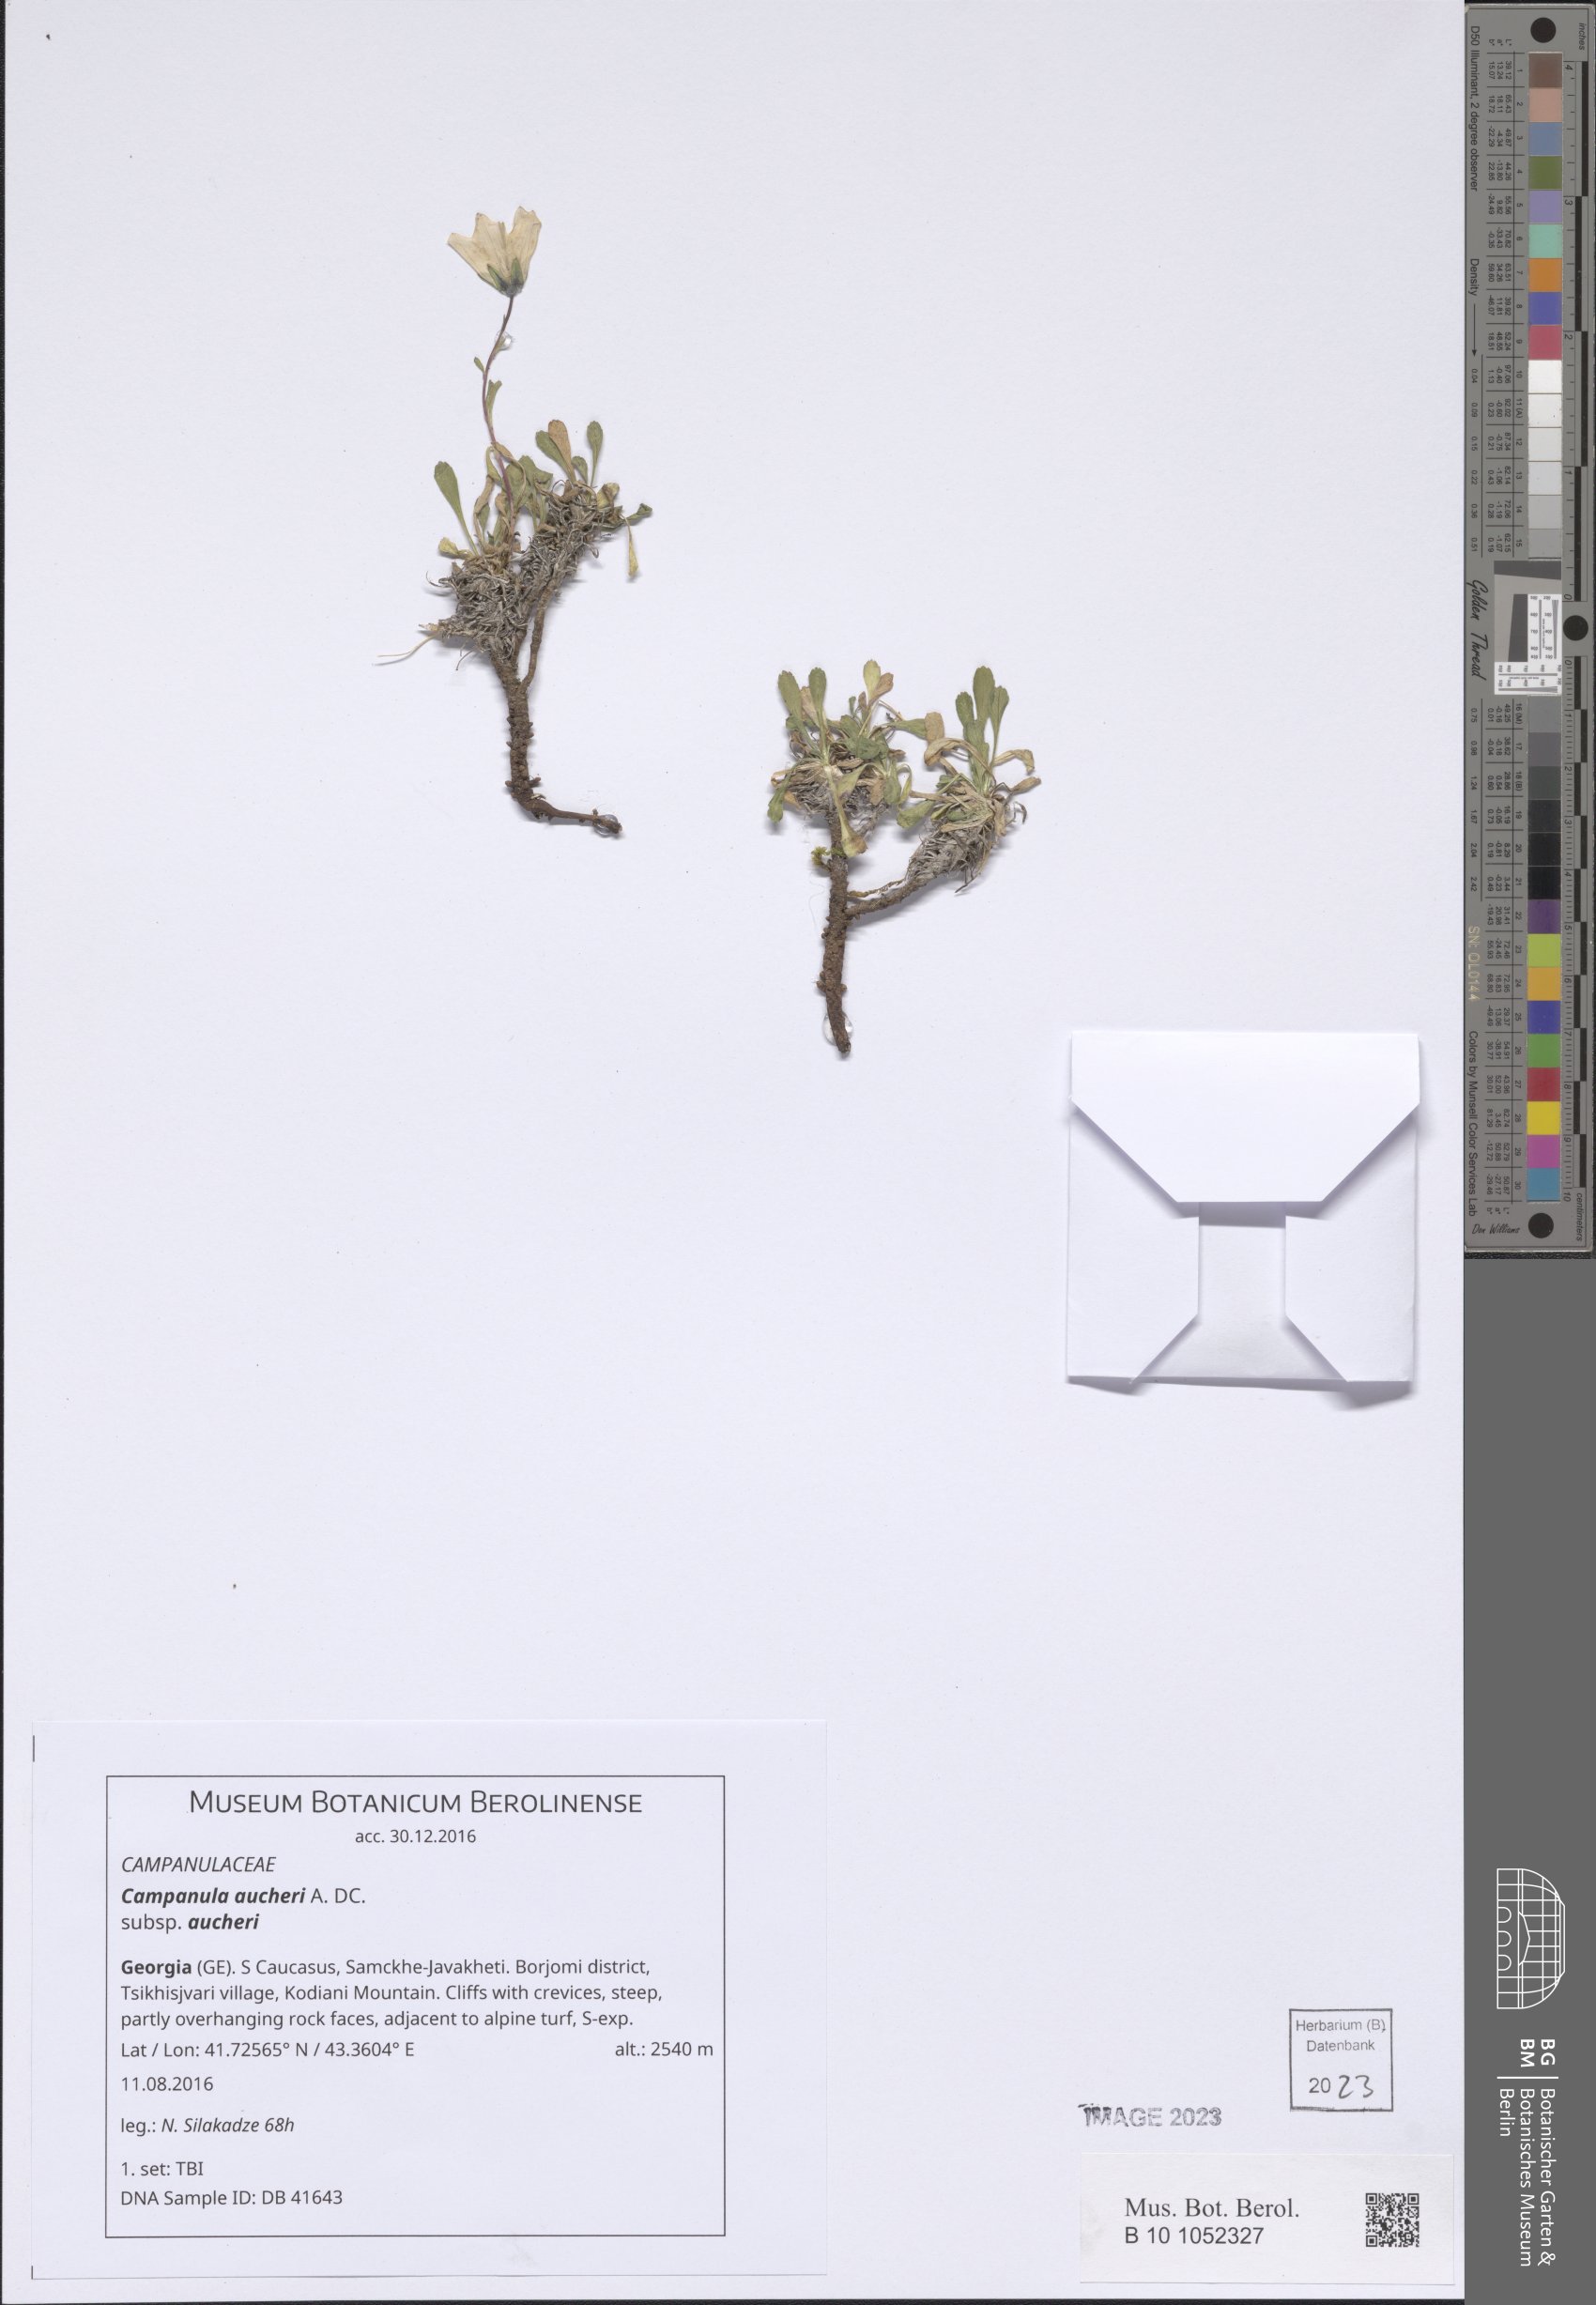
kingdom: Plantae
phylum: Tracheophyta
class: Magnoliopsida
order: Asterales
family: Campanulaceae
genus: Campanula
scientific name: Campanula saxifraga
